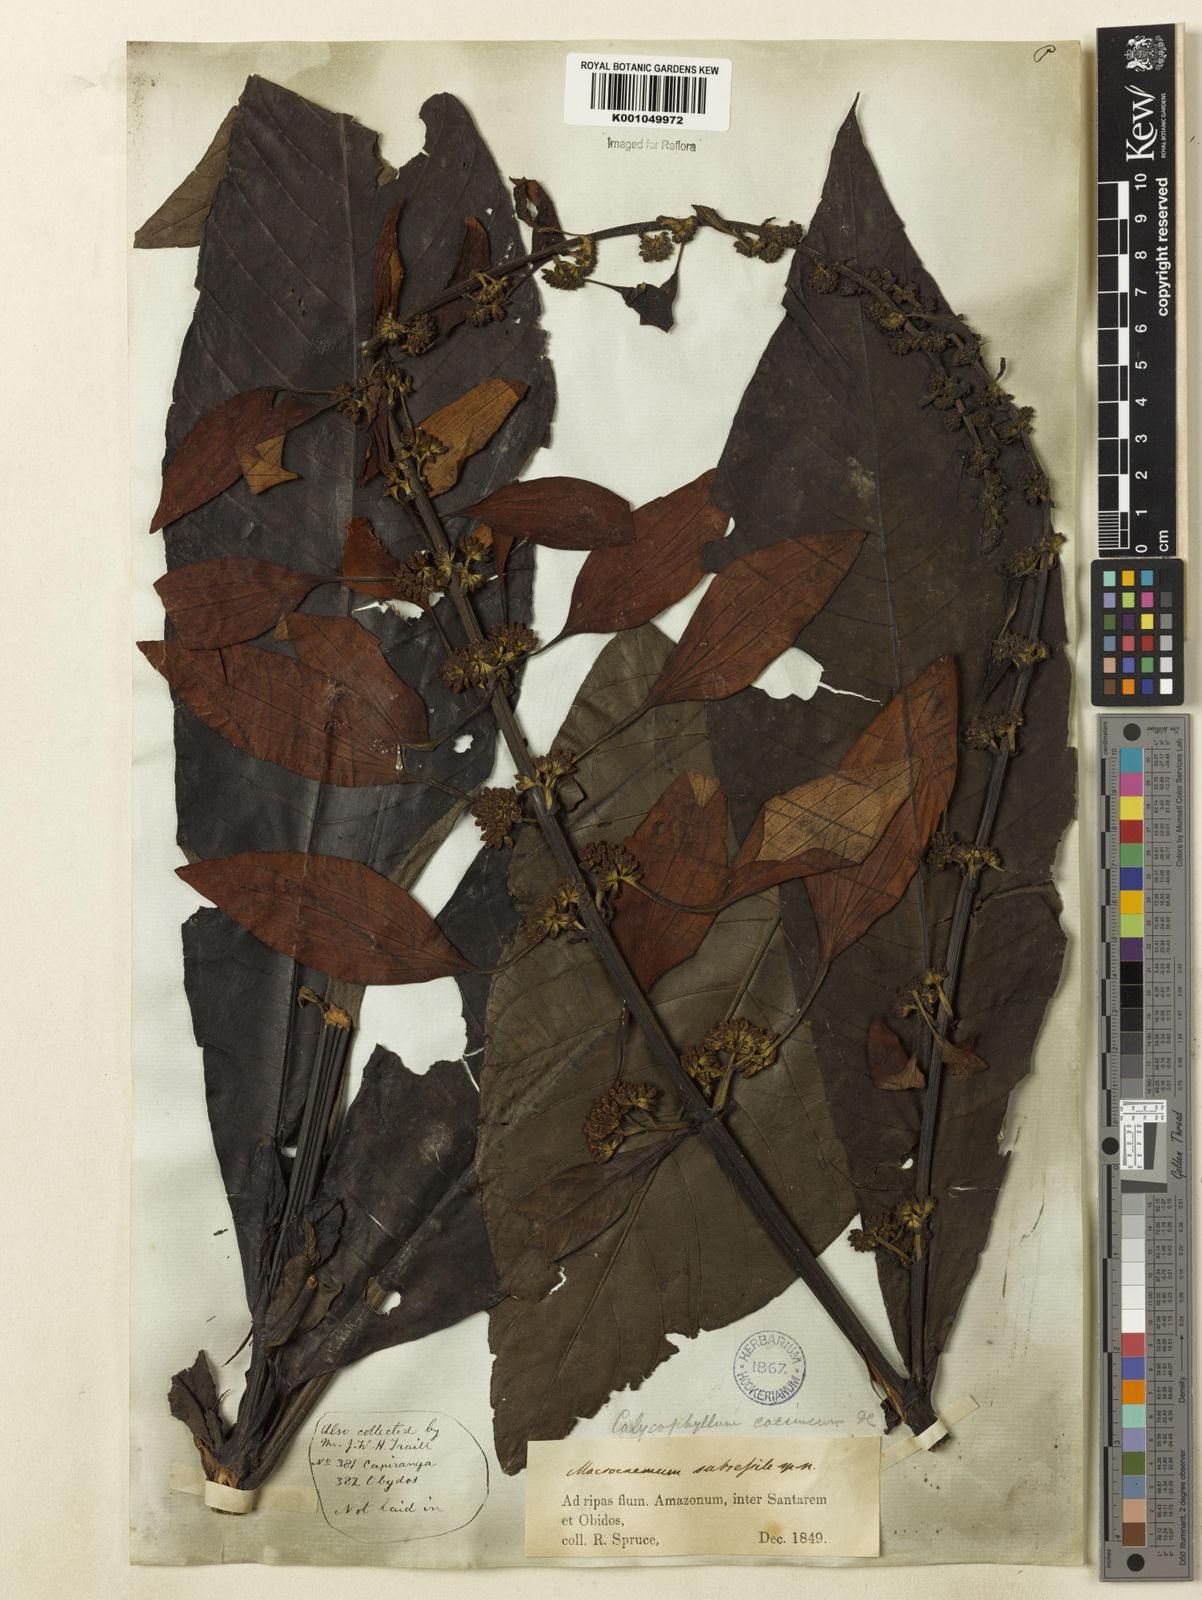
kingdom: Plantae
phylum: Tracheophyta
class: Magnoliopsida
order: Gentianales
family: Rubiaceae
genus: Warszewiczia
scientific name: Warszewiczia coccinea
